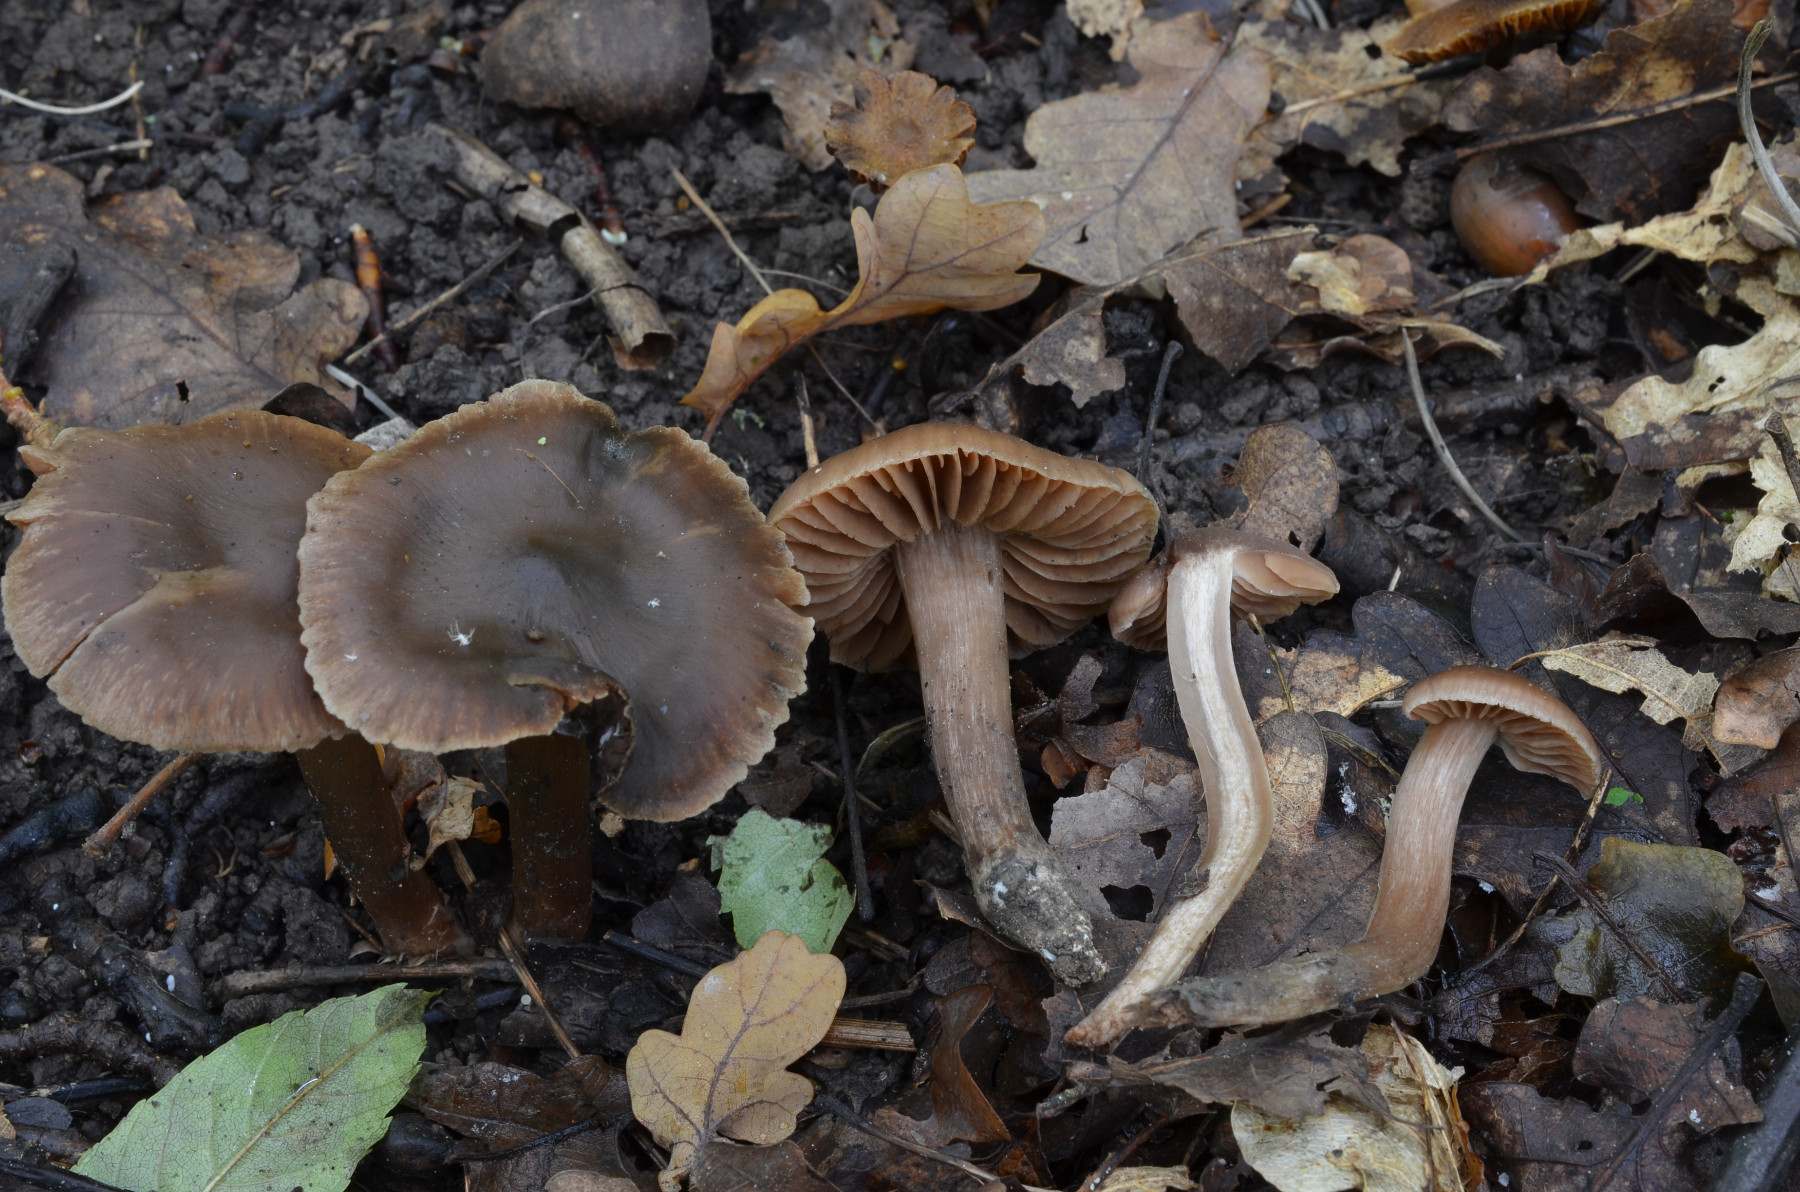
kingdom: Fungi
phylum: Basidiomycota
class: Agaricomycetes
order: Agaricales
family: Cortinariaceae
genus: Cortinarius
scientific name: Cortinarius
